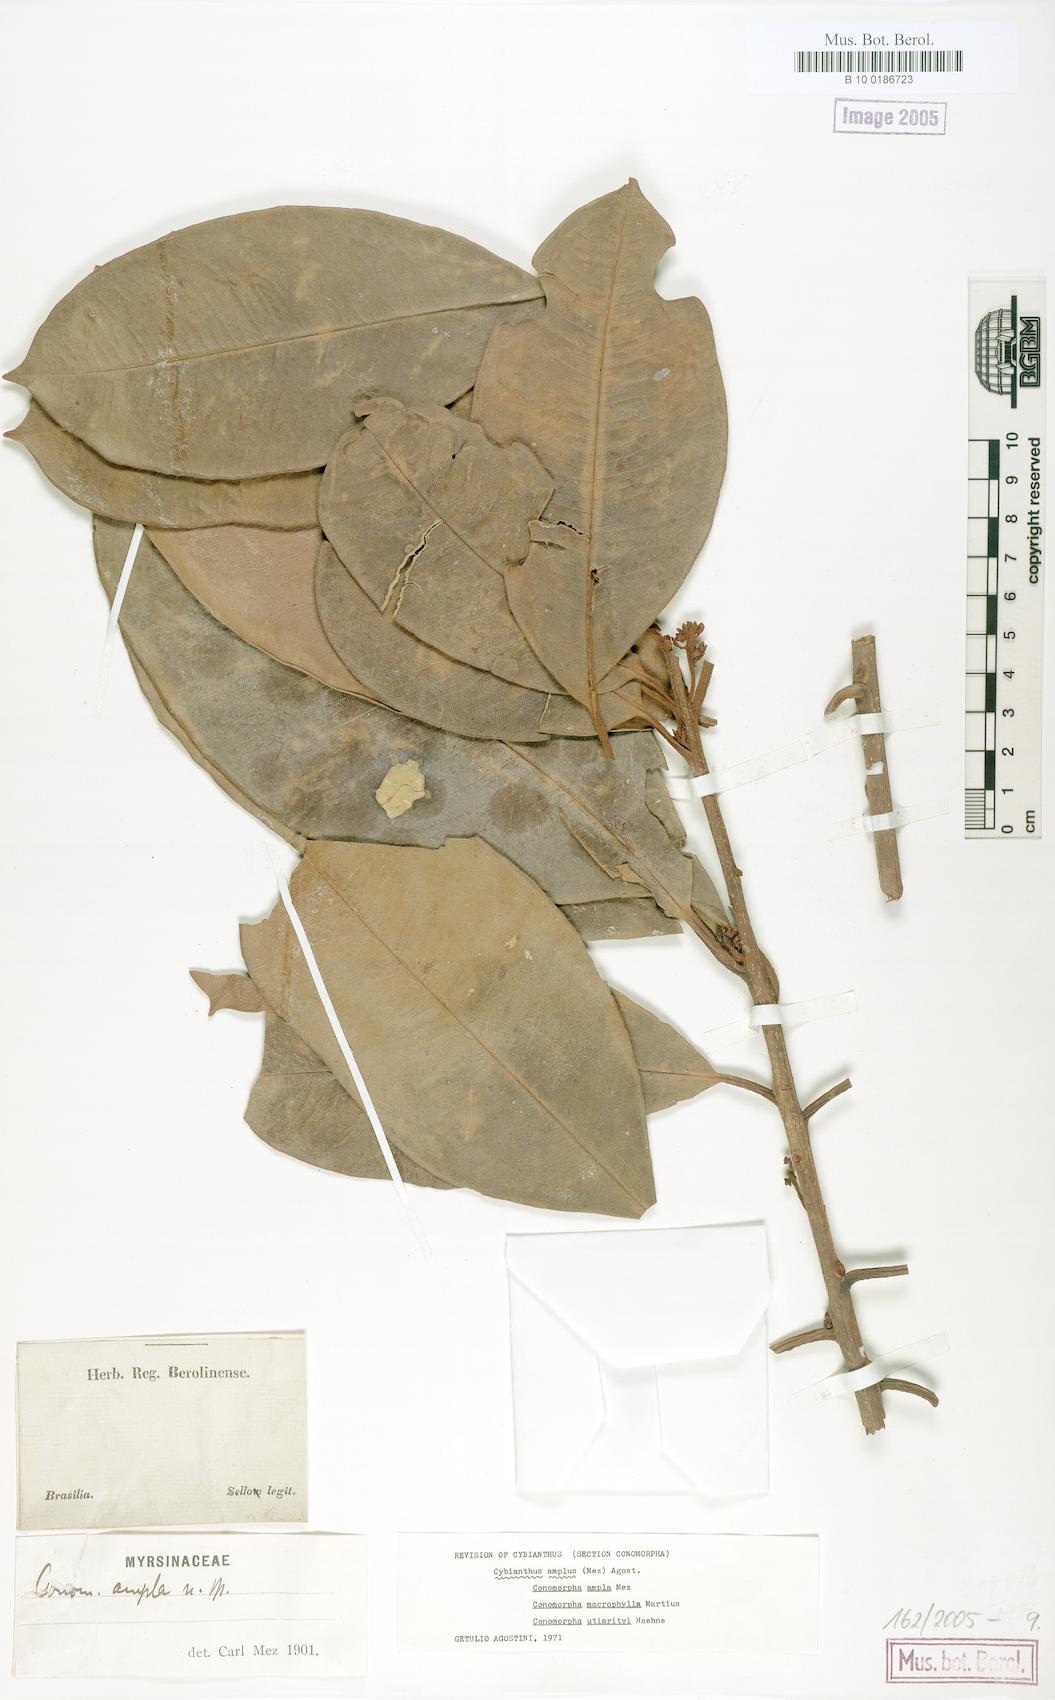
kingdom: Plantae
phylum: Tracheophyta
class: Magnoliopsida
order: Ericales
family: Primulaceae
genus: Cybianthus
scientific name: Cybianthus amplus
